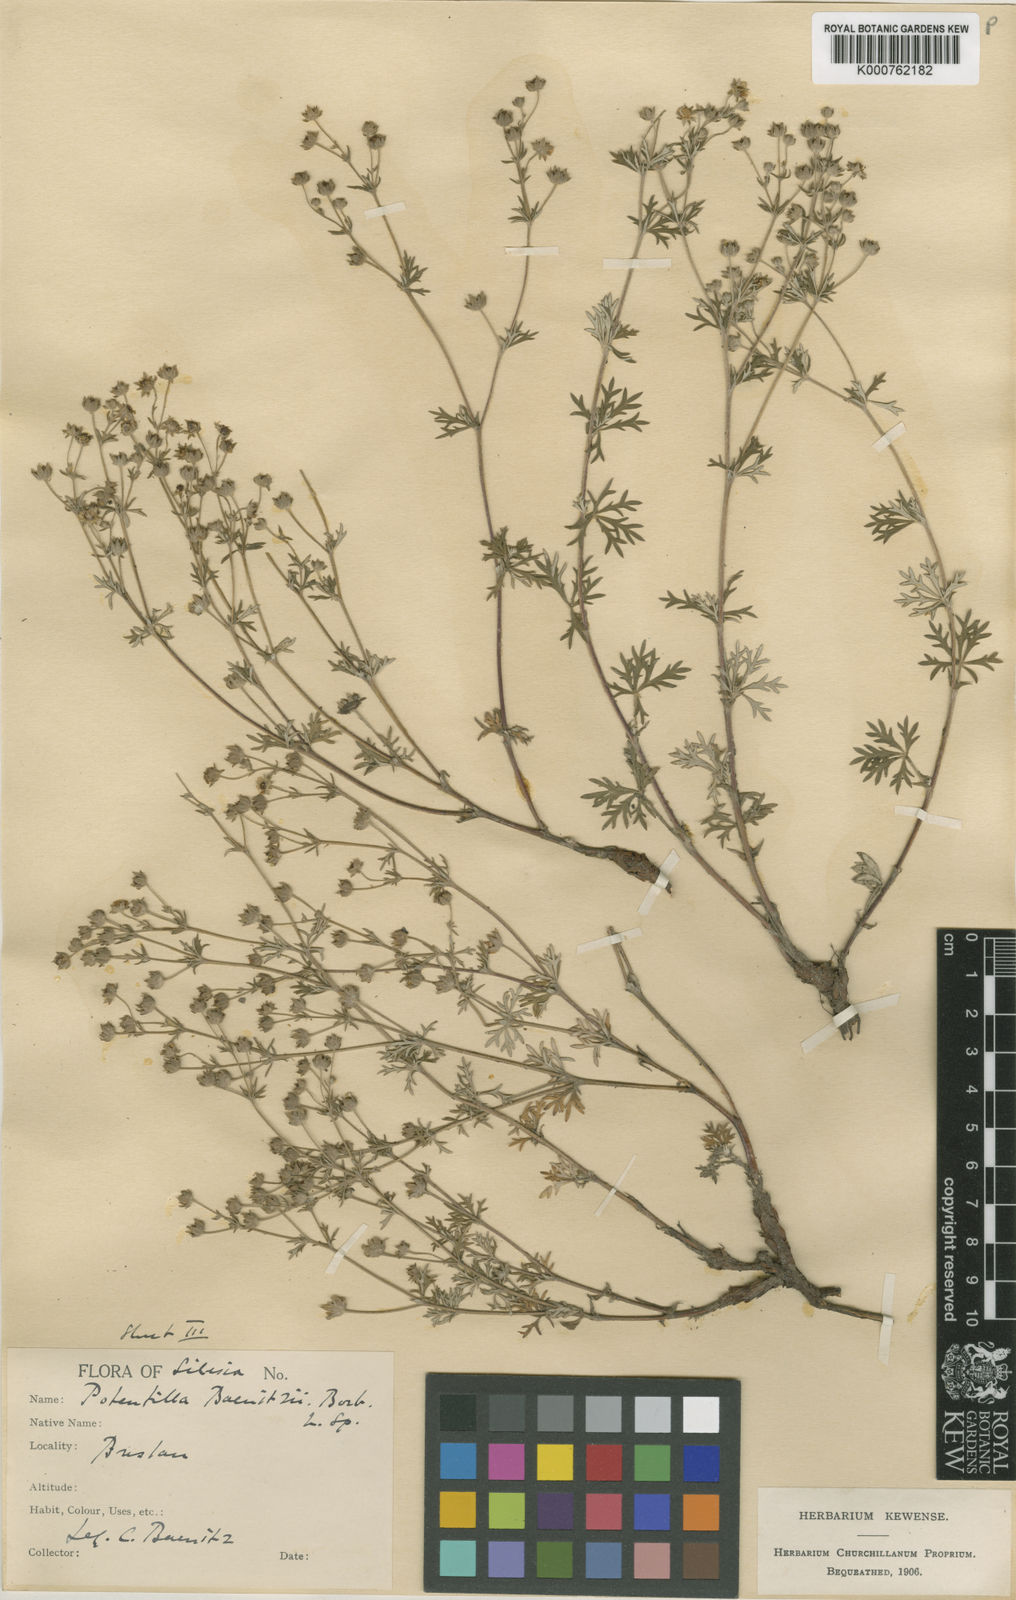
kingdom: Plantae
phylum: Tracheophyta
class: Magnoliopsida
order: Rosales
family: Rosaceae
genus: Potentilla
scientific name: Potentilla argentea
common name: Hoary cinquefoil
